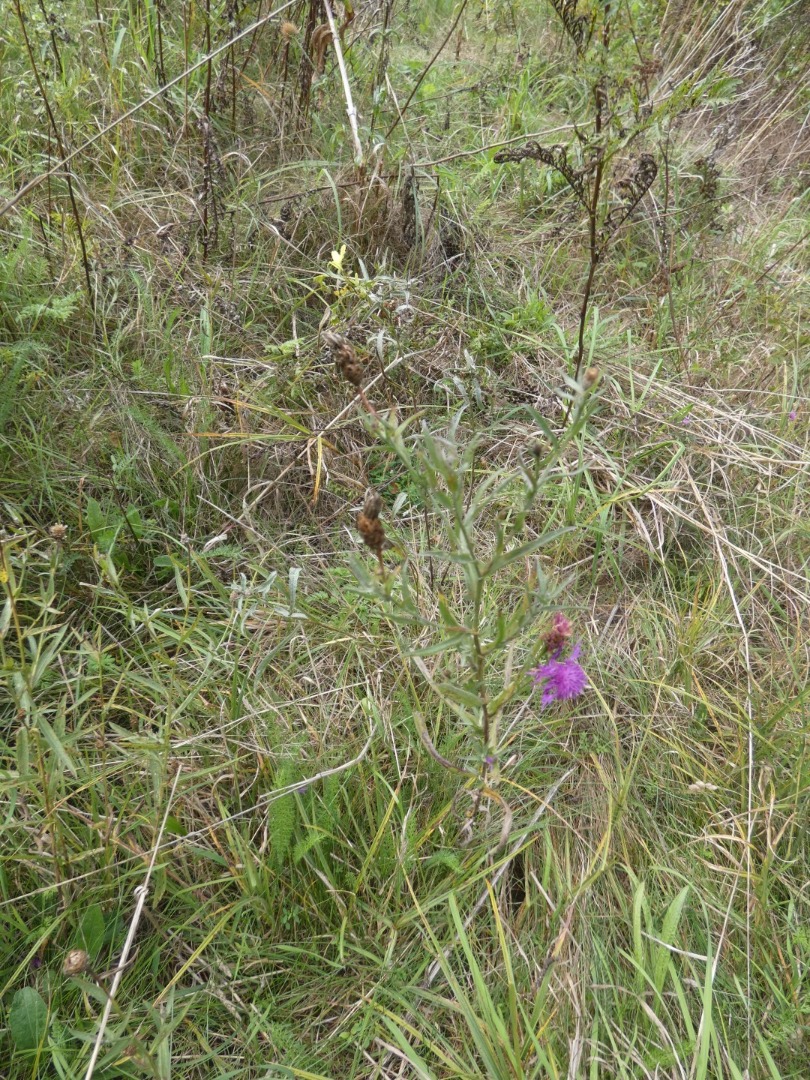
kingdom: Plantae
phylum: Tracheophyta
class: Magnoliopsida
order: Asterales
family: Asteraceae
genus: Centaurea
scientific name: Centaurea jacea
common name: Almindelig knopurt
